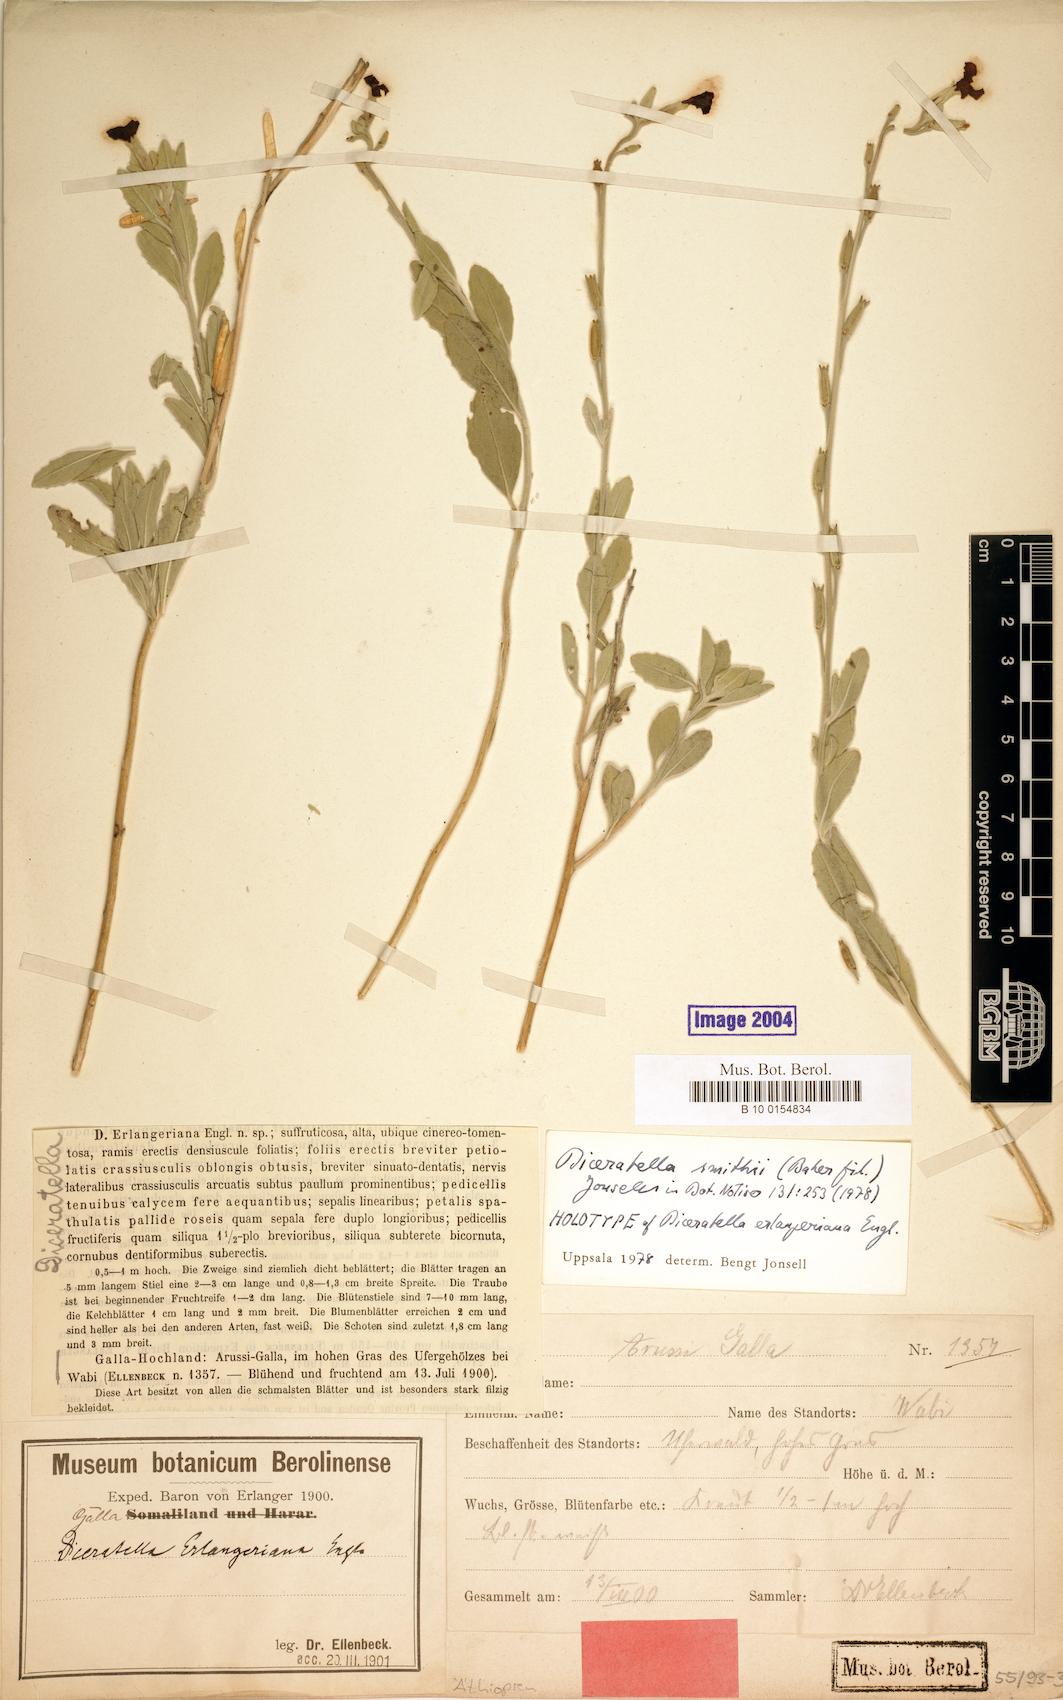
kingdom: Plantae
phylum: Tracheophyta
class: Magnoliopsida
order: Brassicales
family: Brassicaceae
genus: Diceratella
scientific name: Diceratella smithii
